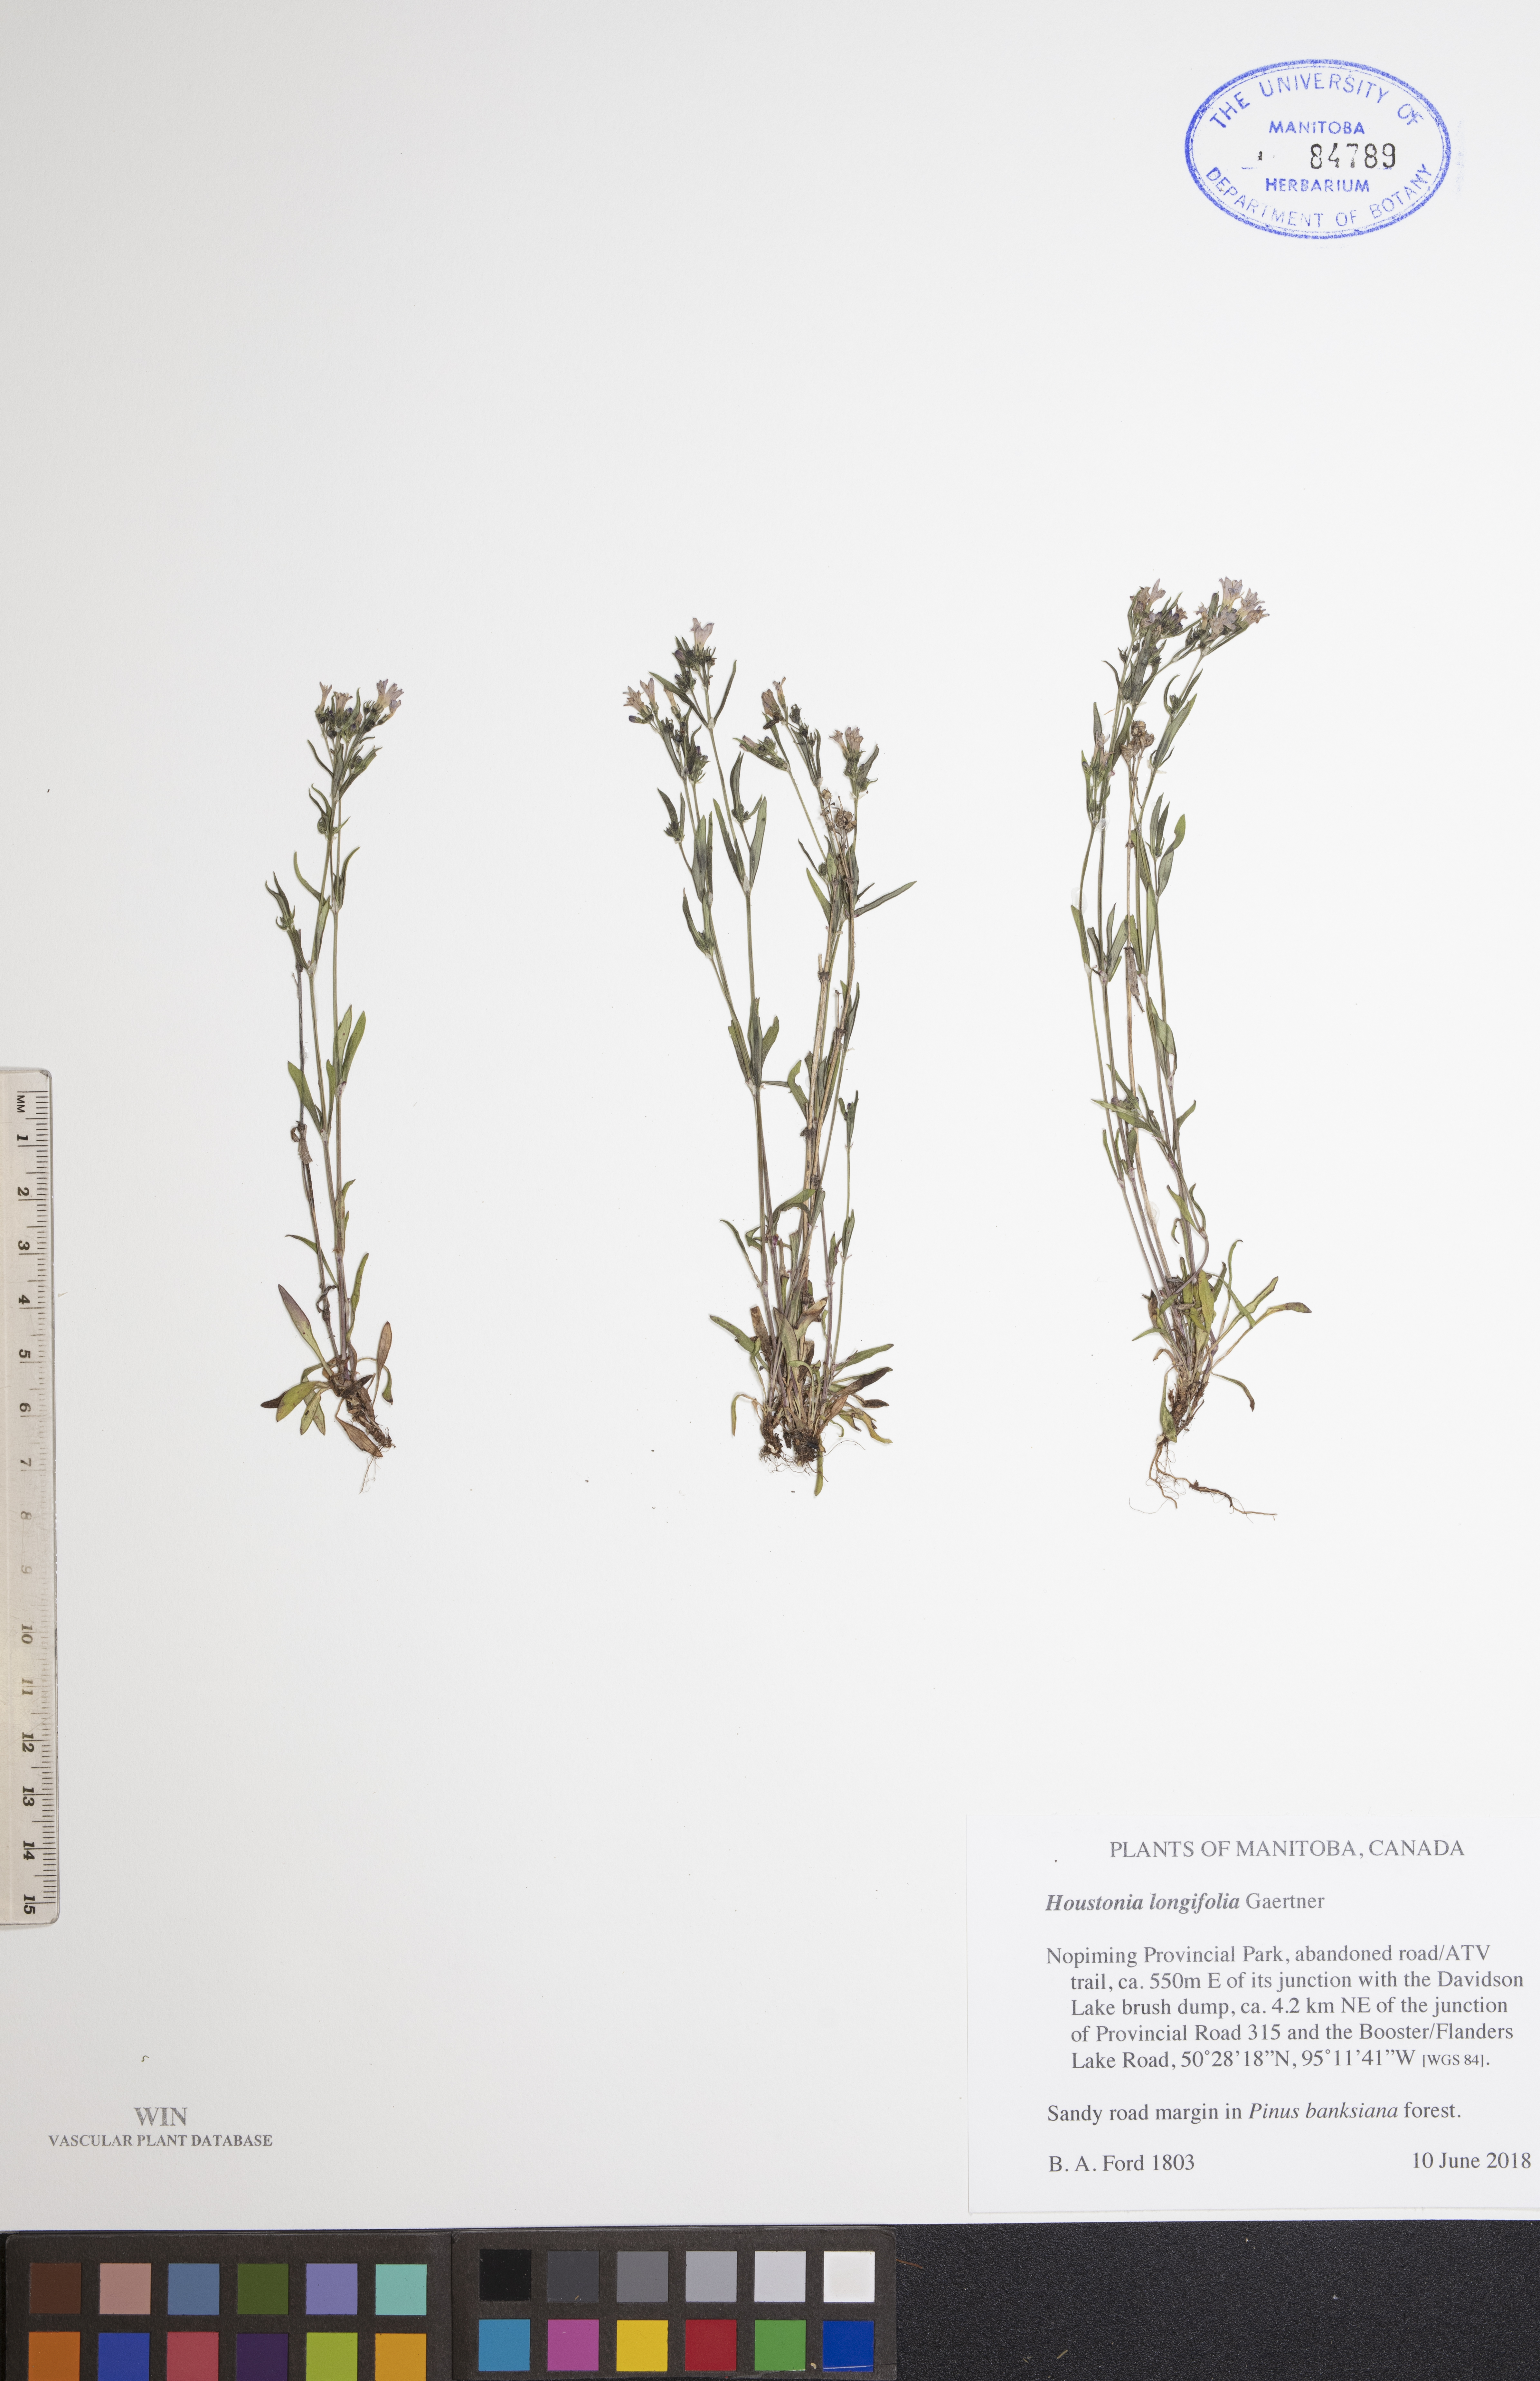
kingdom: Plantae
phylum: Tracheophyta
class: Magnoliopsida
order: Gentianales
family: Rubiaceae
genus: Houstonia
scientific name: Houstonia longifolia
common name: Long-leaved bluets
